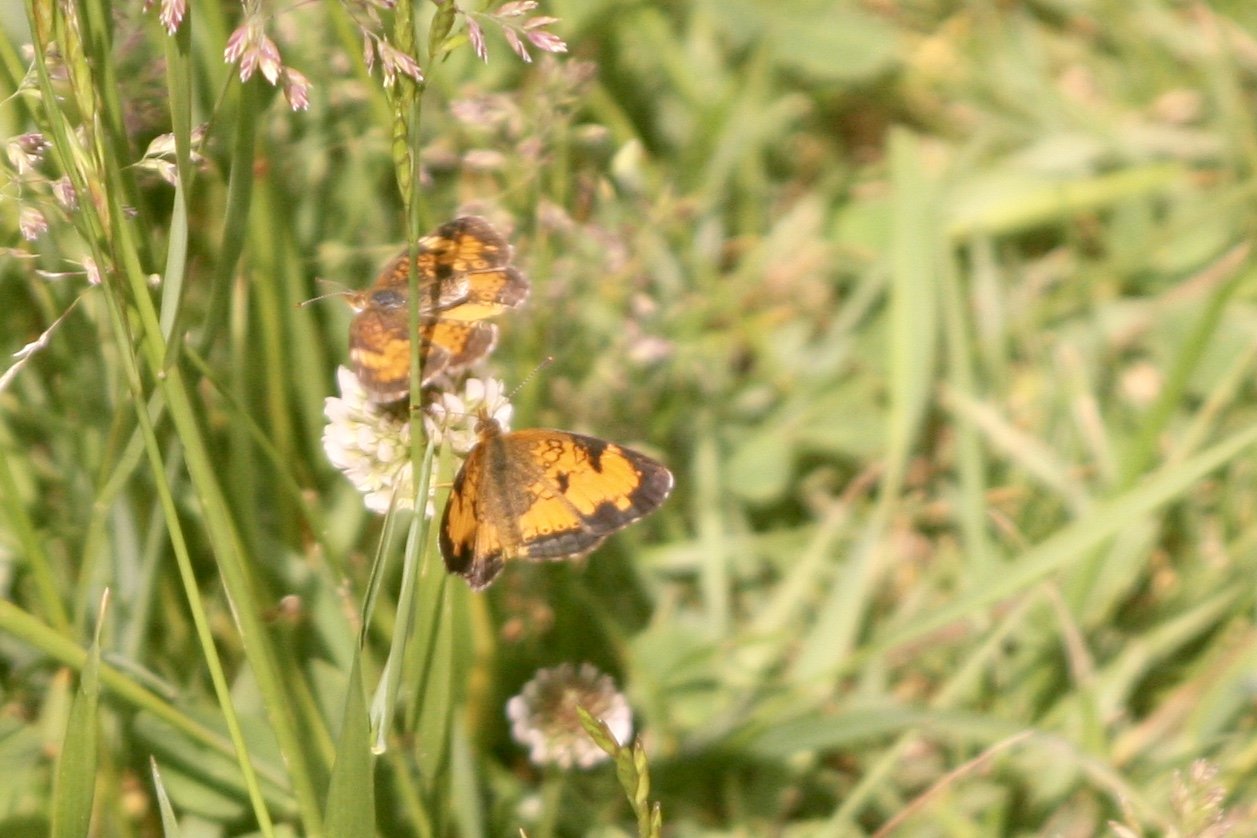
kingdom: Animalia
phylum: Arthropoda
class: Insecta
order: Lepidoptera
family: Nymphalidae
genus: Phyciodes
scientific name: Phyciodes tharos
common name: Northern Crescent
